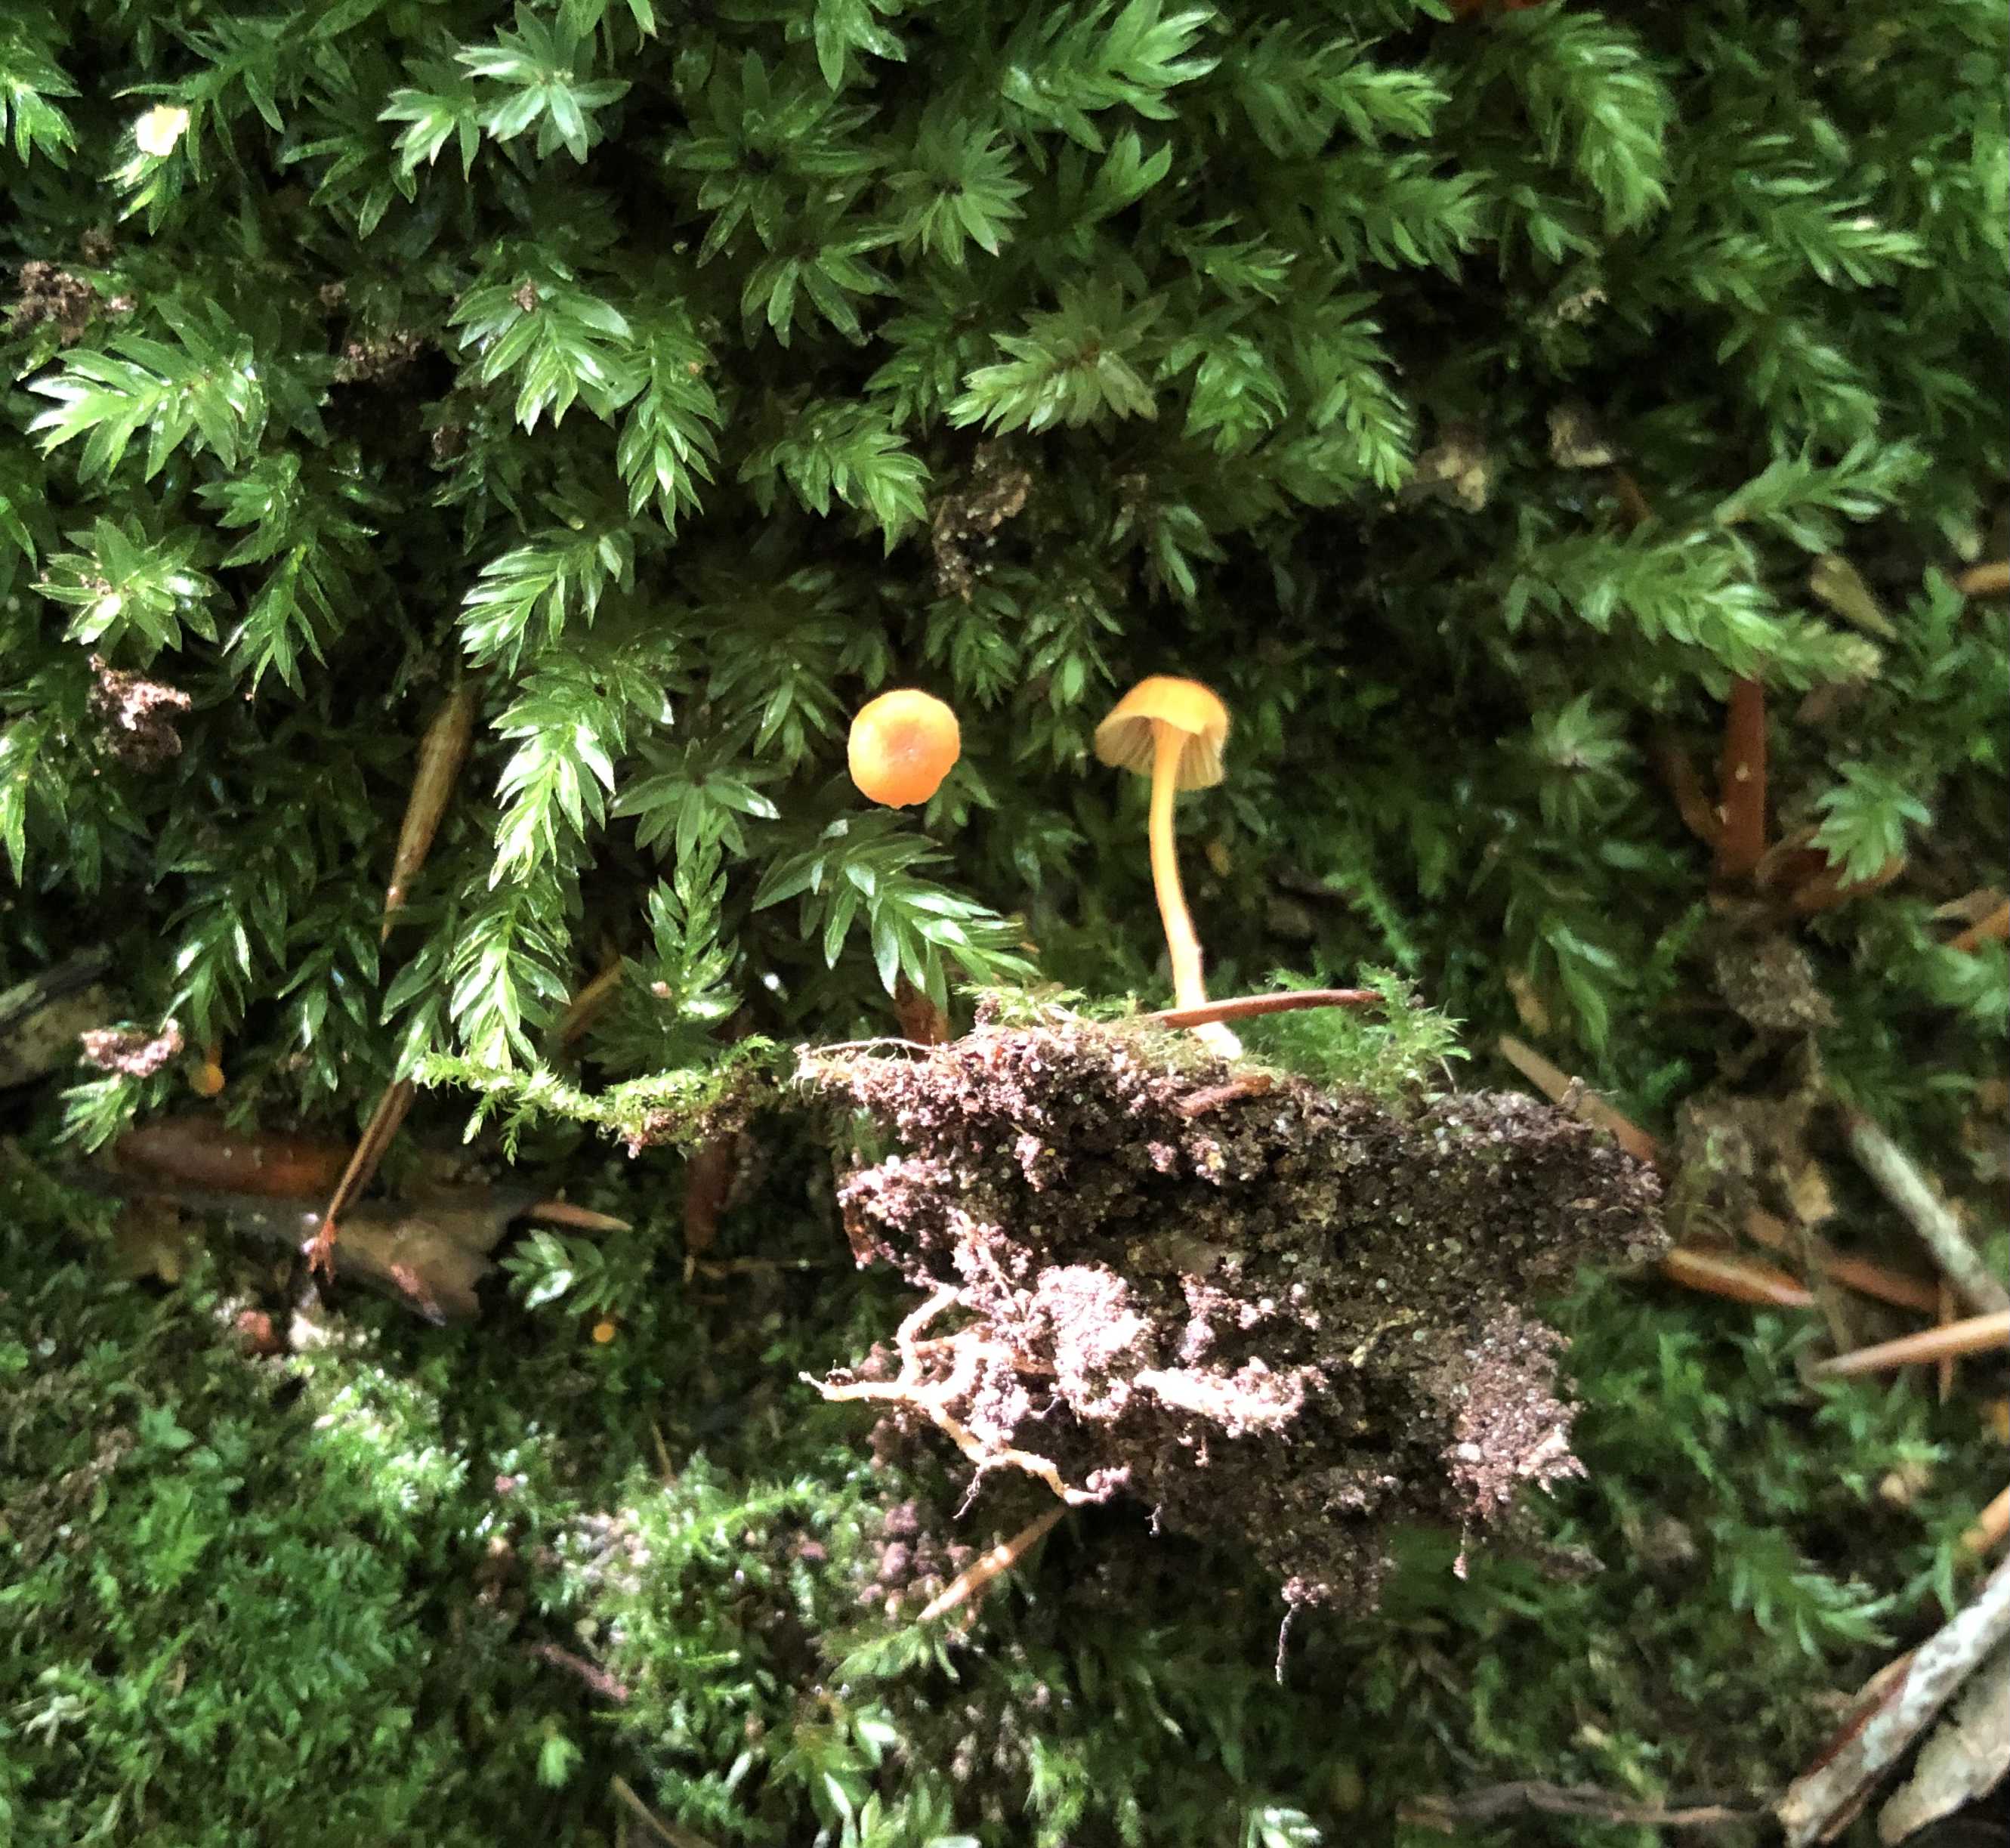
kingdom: Fungi
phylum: Basidiomycota
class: Agaricomycetes
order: Hymenochaetales
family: Rickenellaceae
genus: Rickenella
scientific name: Rickenella fibula
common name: orange mosnavlehat
